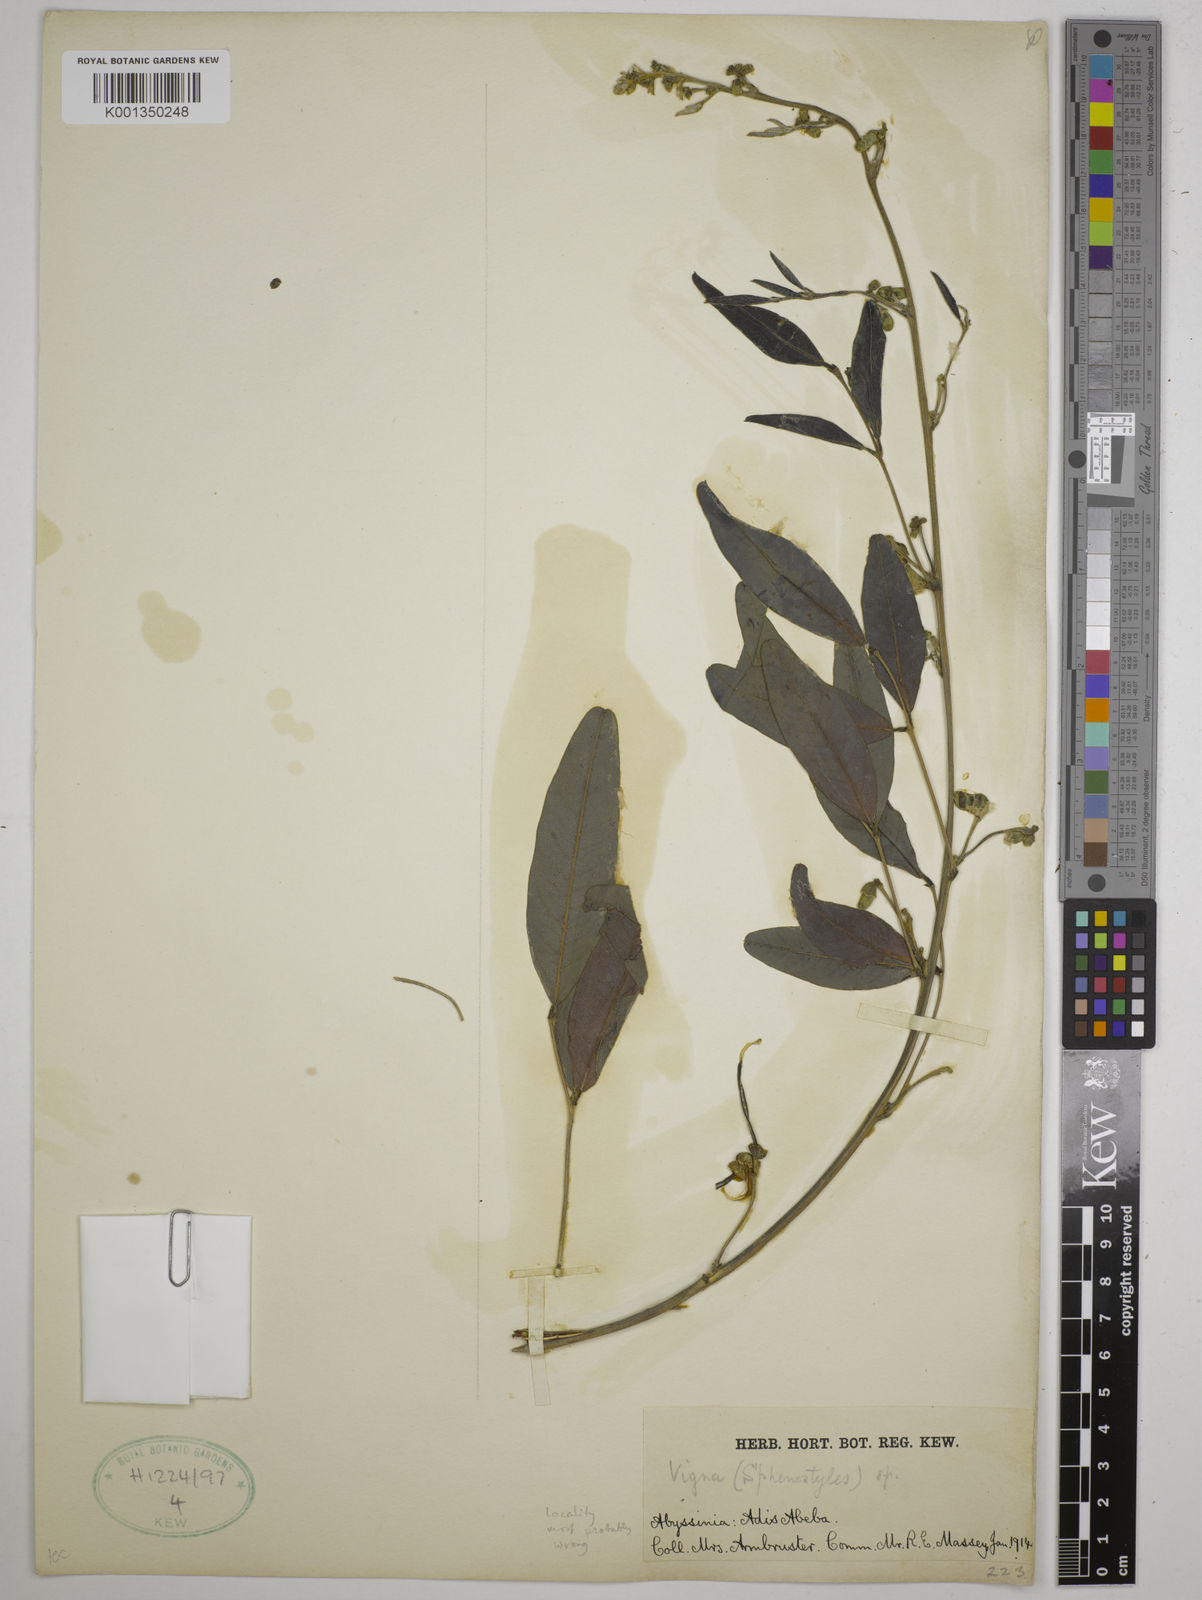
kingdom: Plantae
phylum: Tracheophyta
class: Magnoliopsida
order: Fabales
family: Fabaceae
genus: Sphenostylis
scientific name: Sphenostylis
